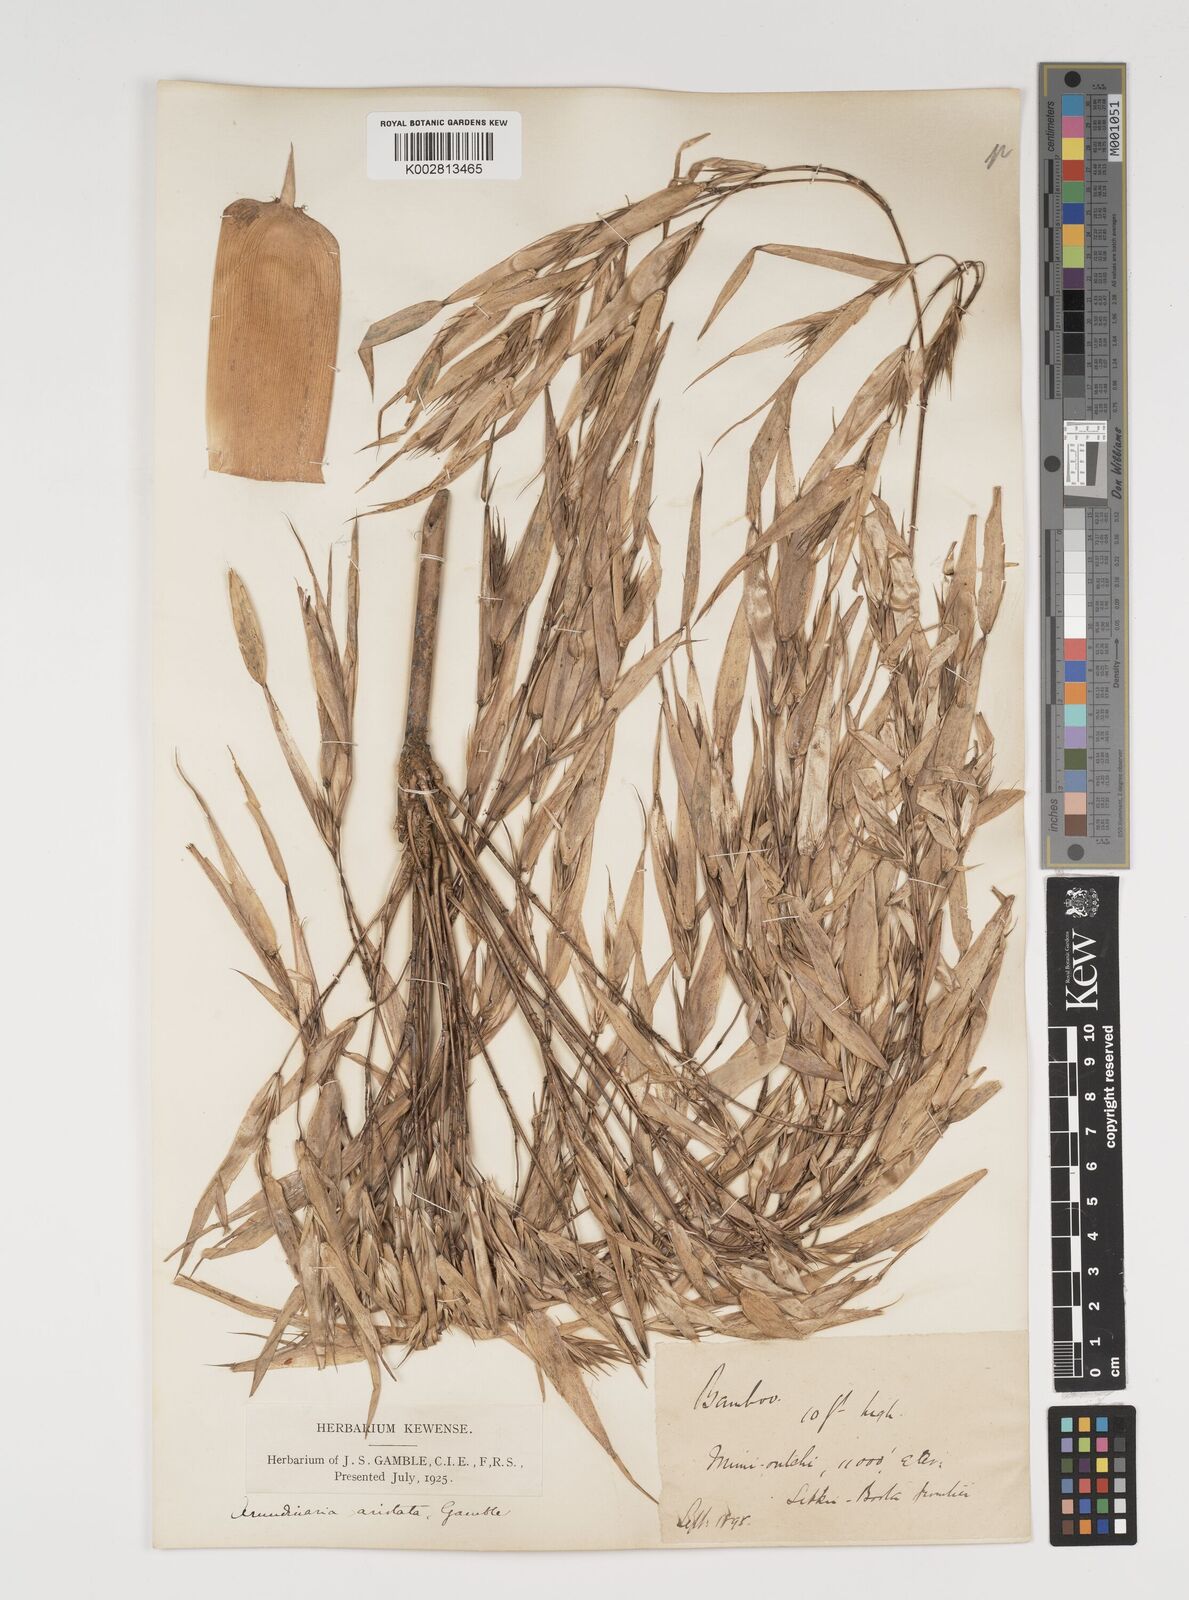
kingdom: Plantae
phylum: Tracheophyta
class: Liliopsida
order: Poales
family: Poaceae
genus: Thamnocalamus
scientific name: Thamnocalamus spathiflorus
